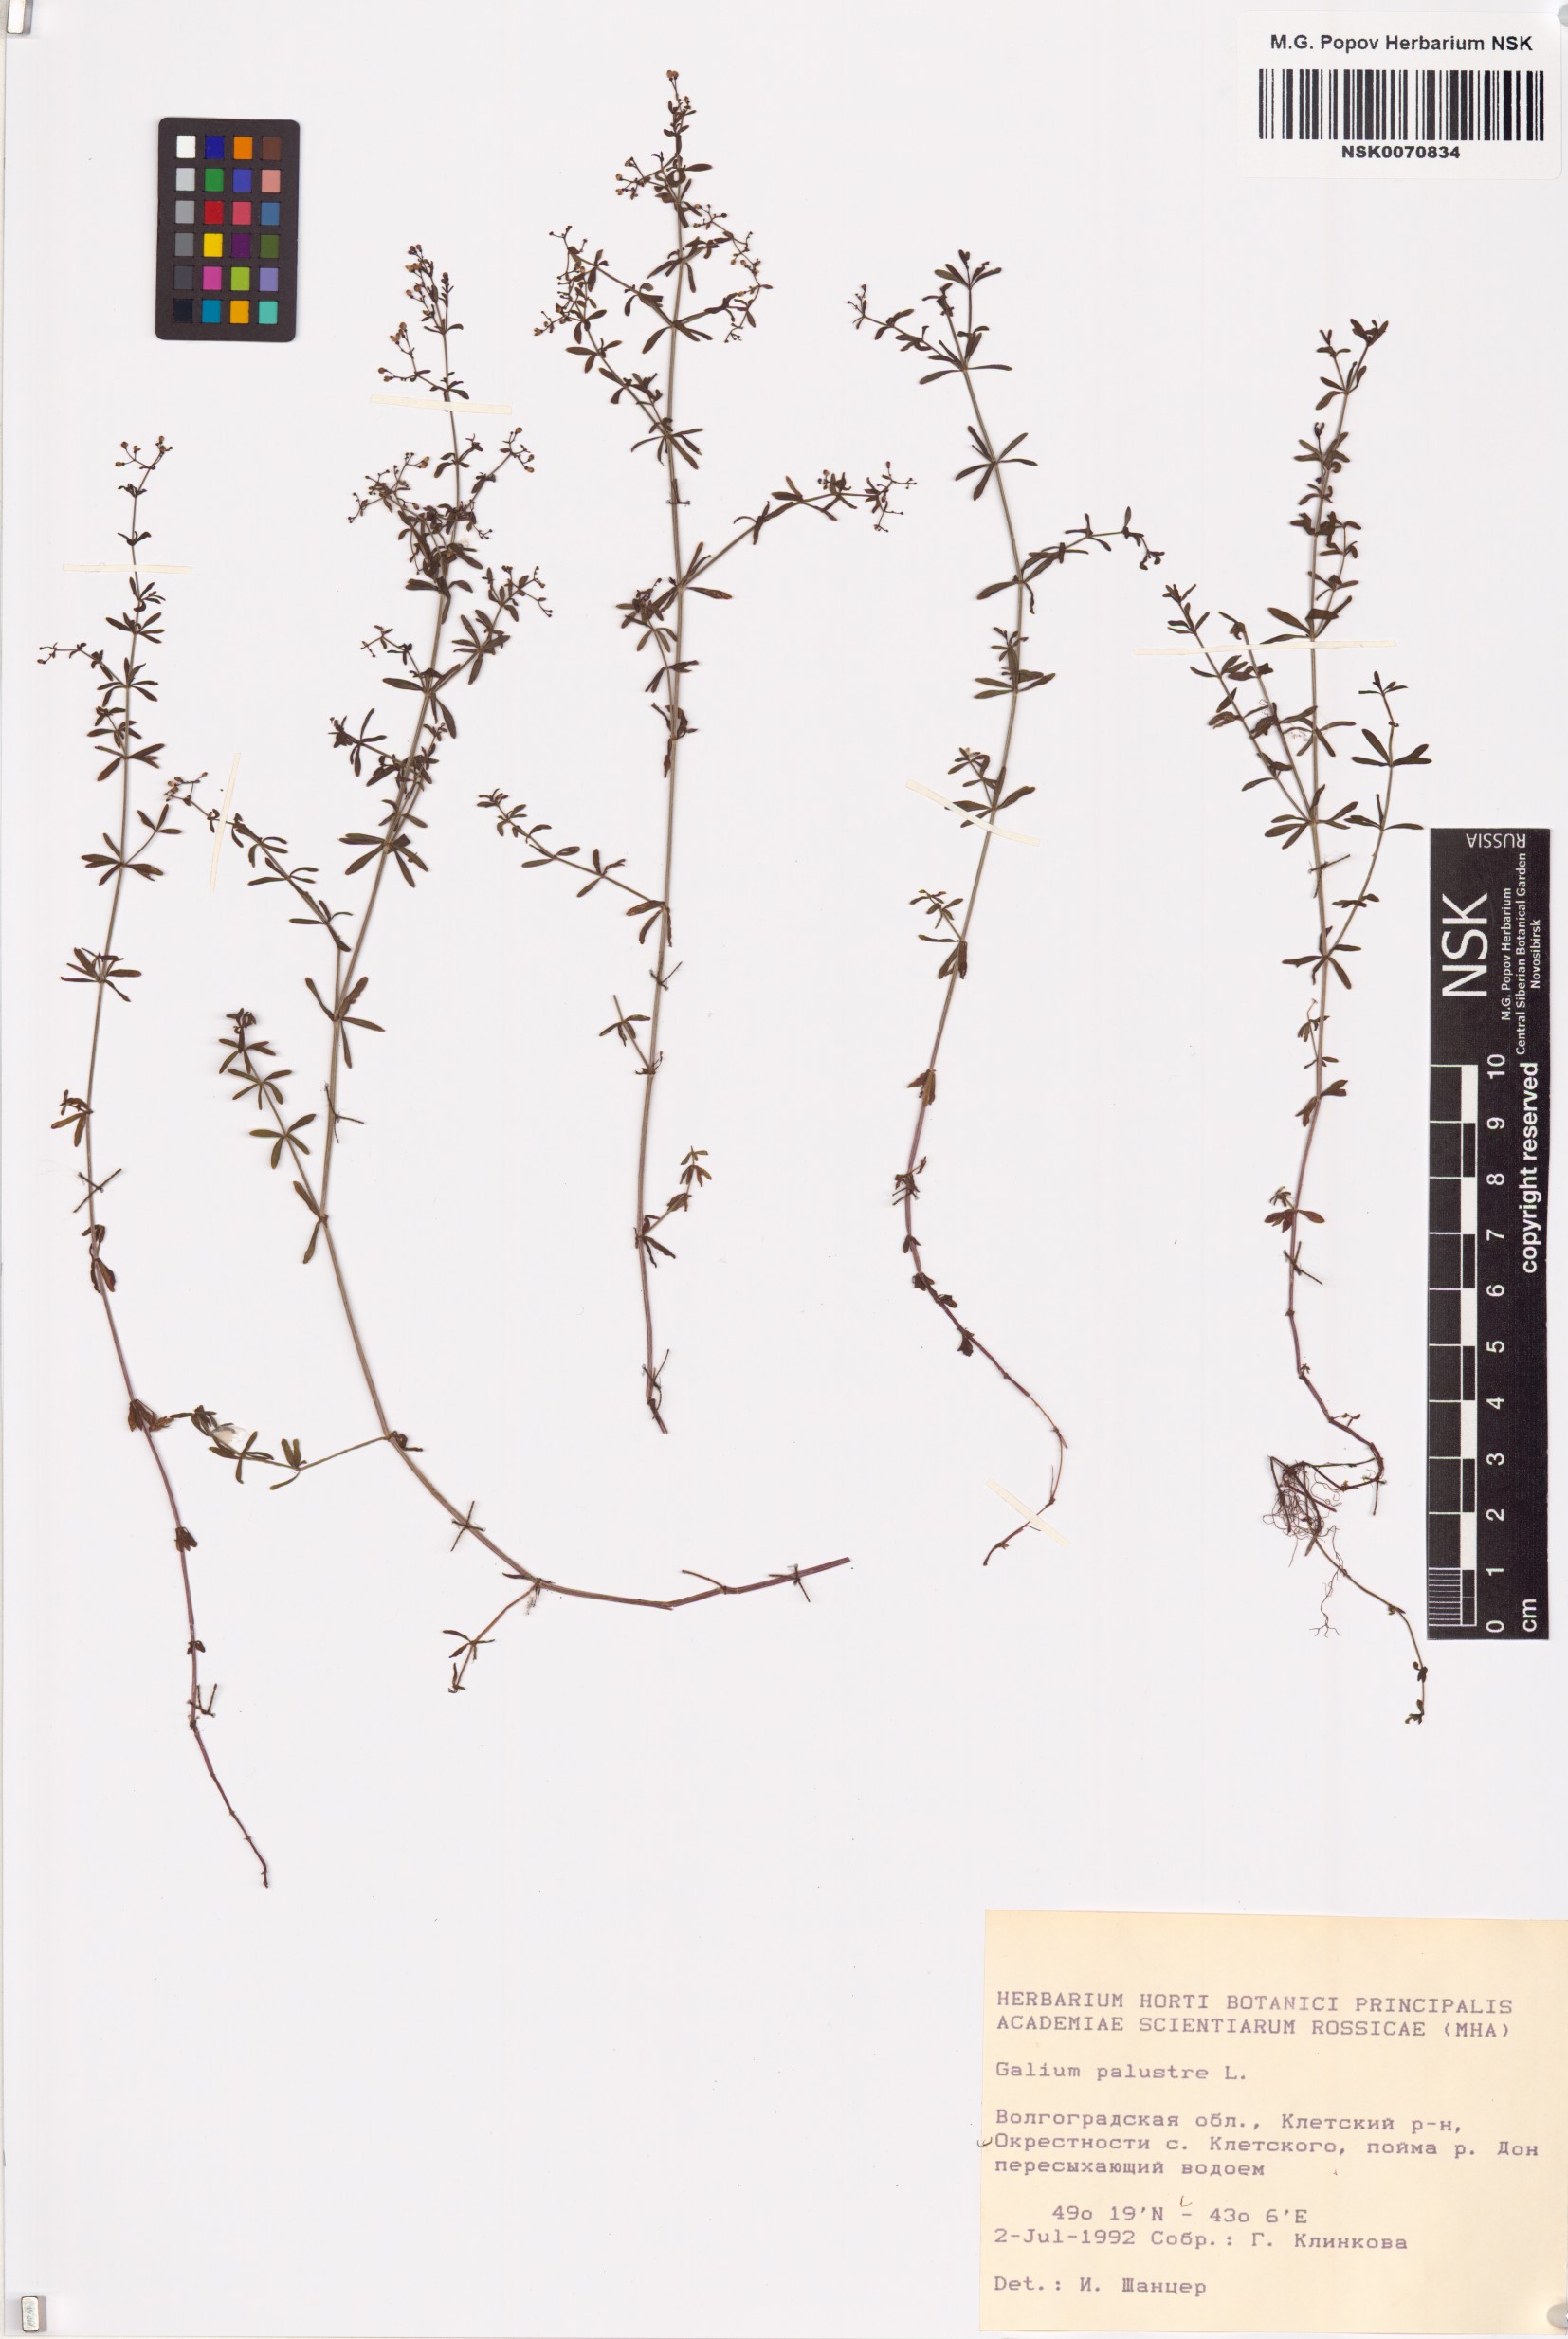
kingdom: Plantae
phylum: Tracheophyta
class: Magnoliopsida
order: Gentianales
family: Rubiaceae
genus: Galium
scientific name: Galium palustre
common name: Common marsh-bedstraw
